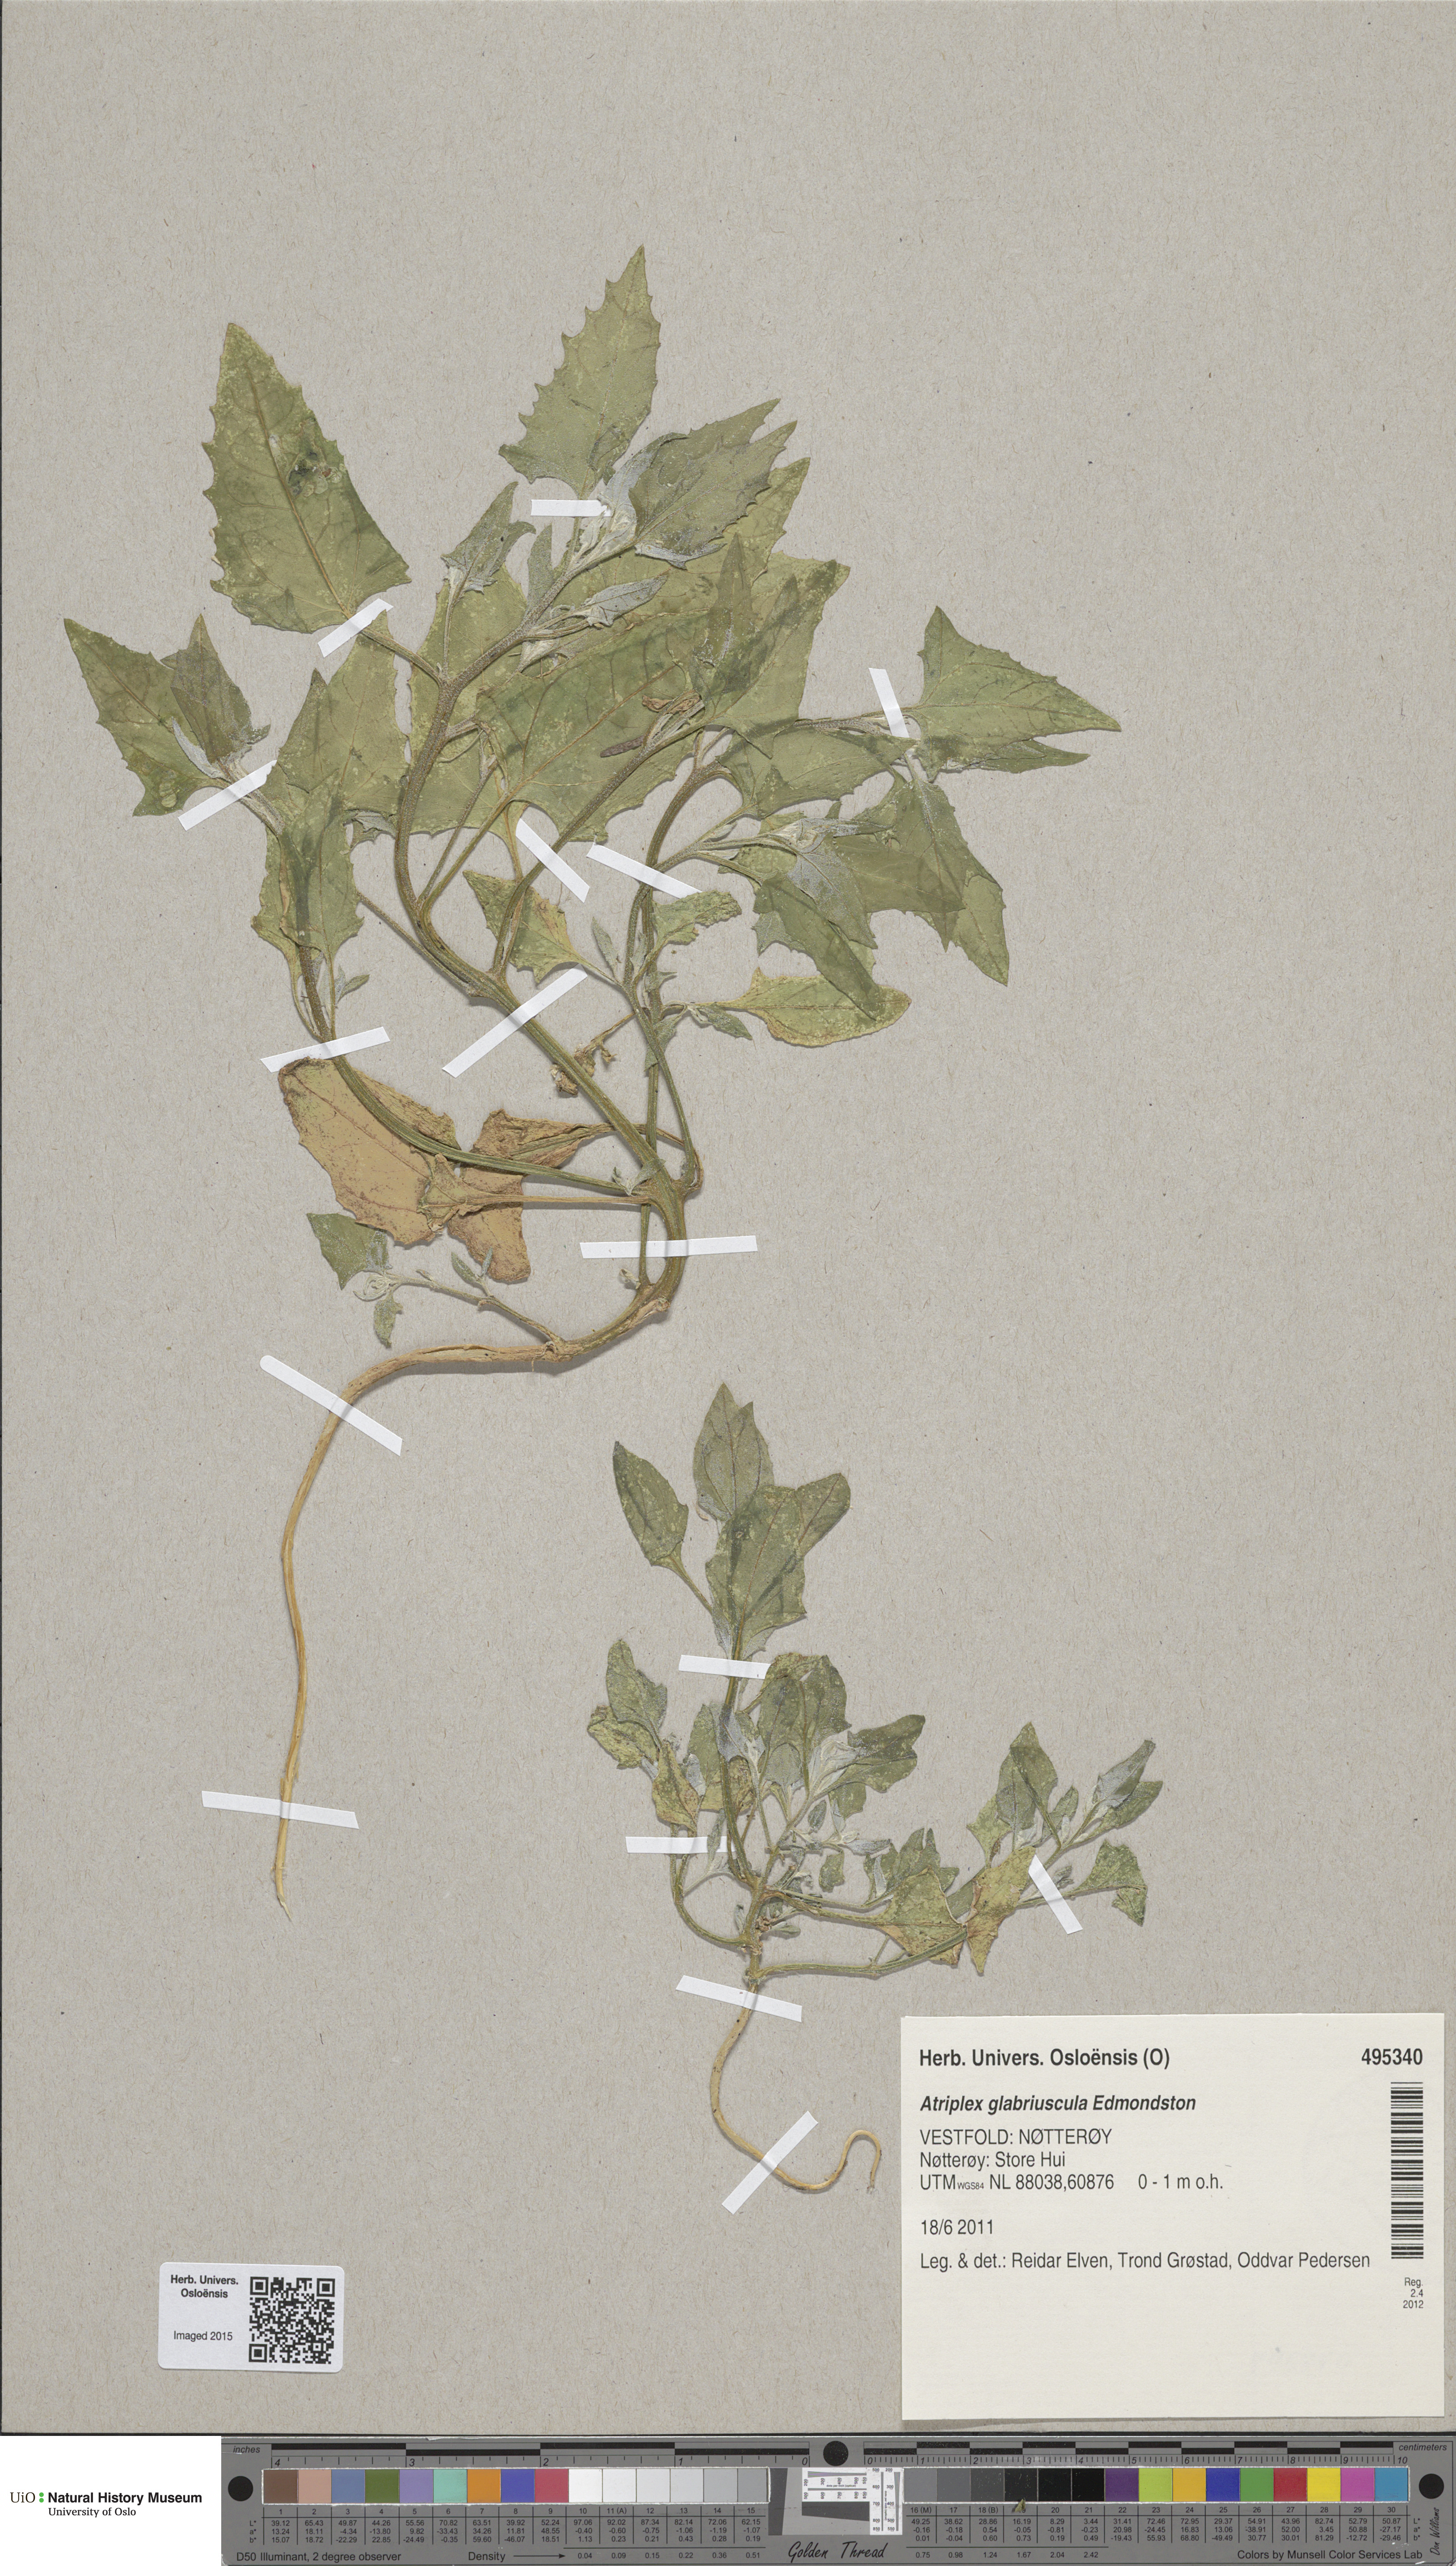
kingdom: Plantae
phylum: Tracheophyta
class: Magnoliopsida
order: Caryophyllales
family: Amaranthaceae
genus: Atriplex
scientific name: Atriplex glabriuscula
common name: Babington's orache
